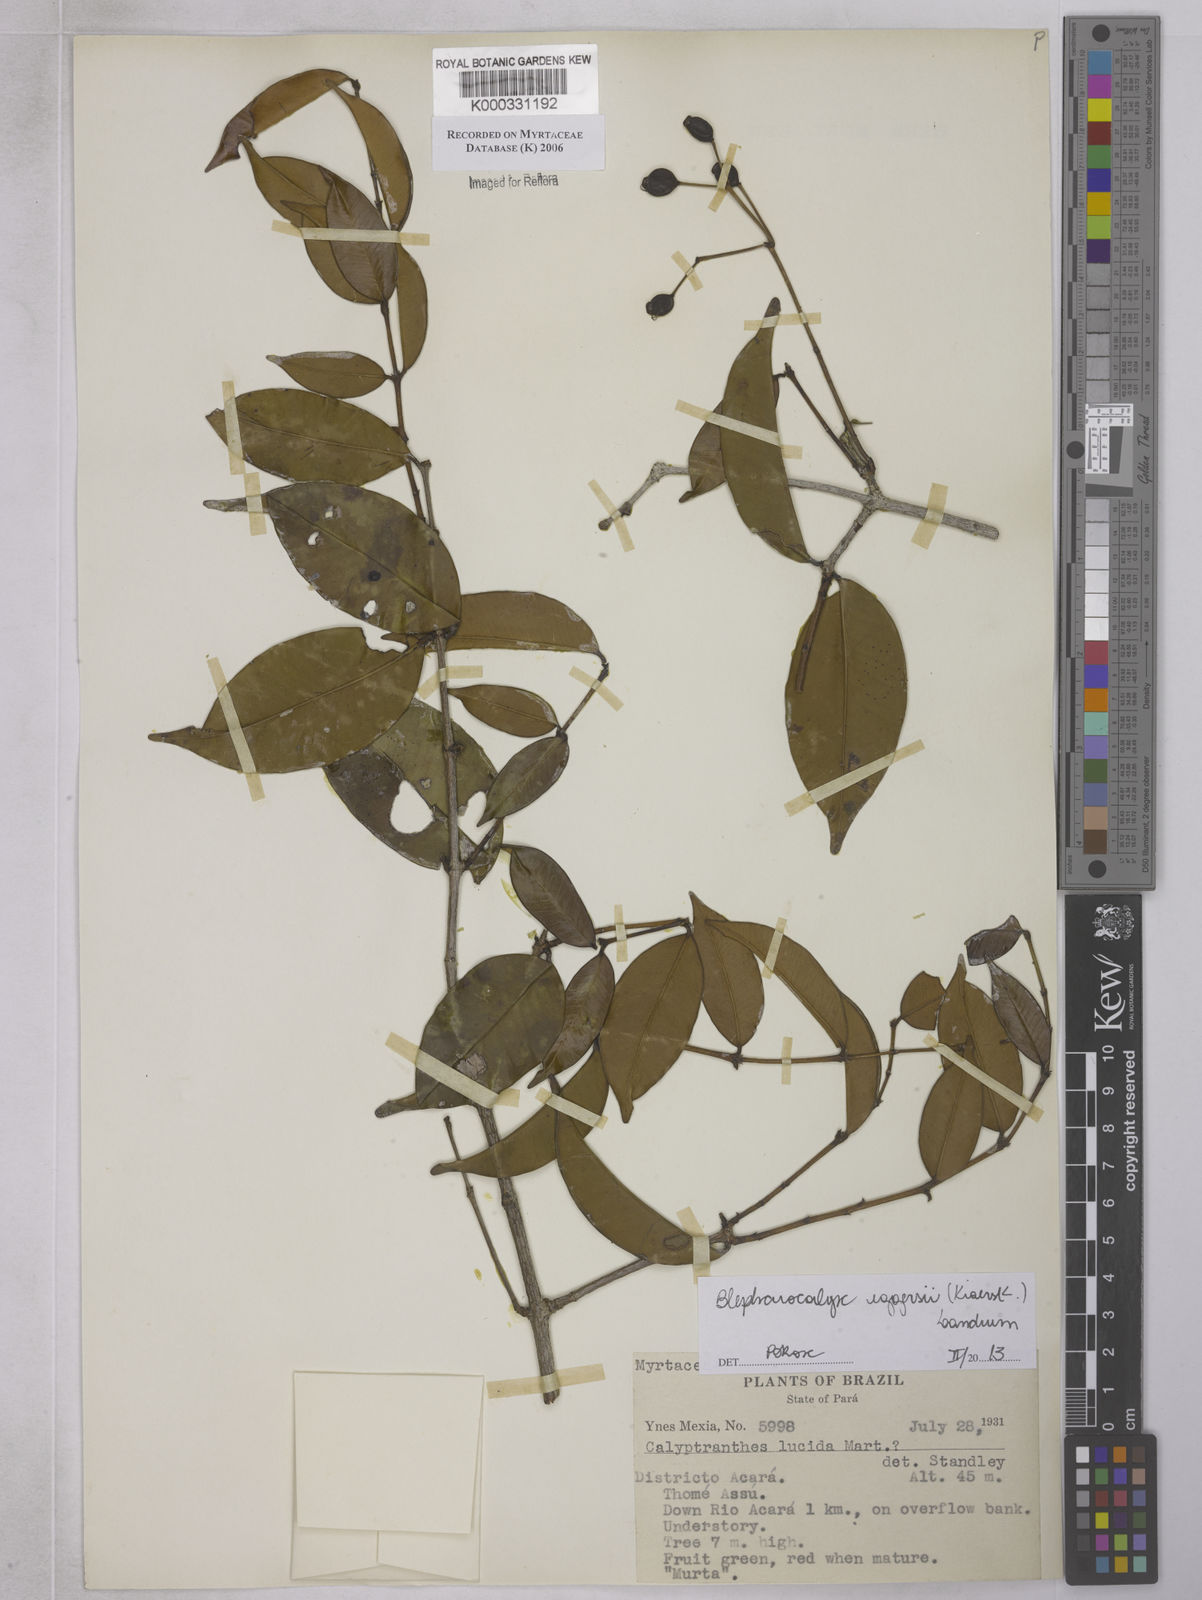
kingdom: Plantae
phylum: Tracheophyta
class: Magnoliopsida
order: Myrtales
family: Myrtaceae
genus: Myrcia
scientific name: Myrcia neolucida
